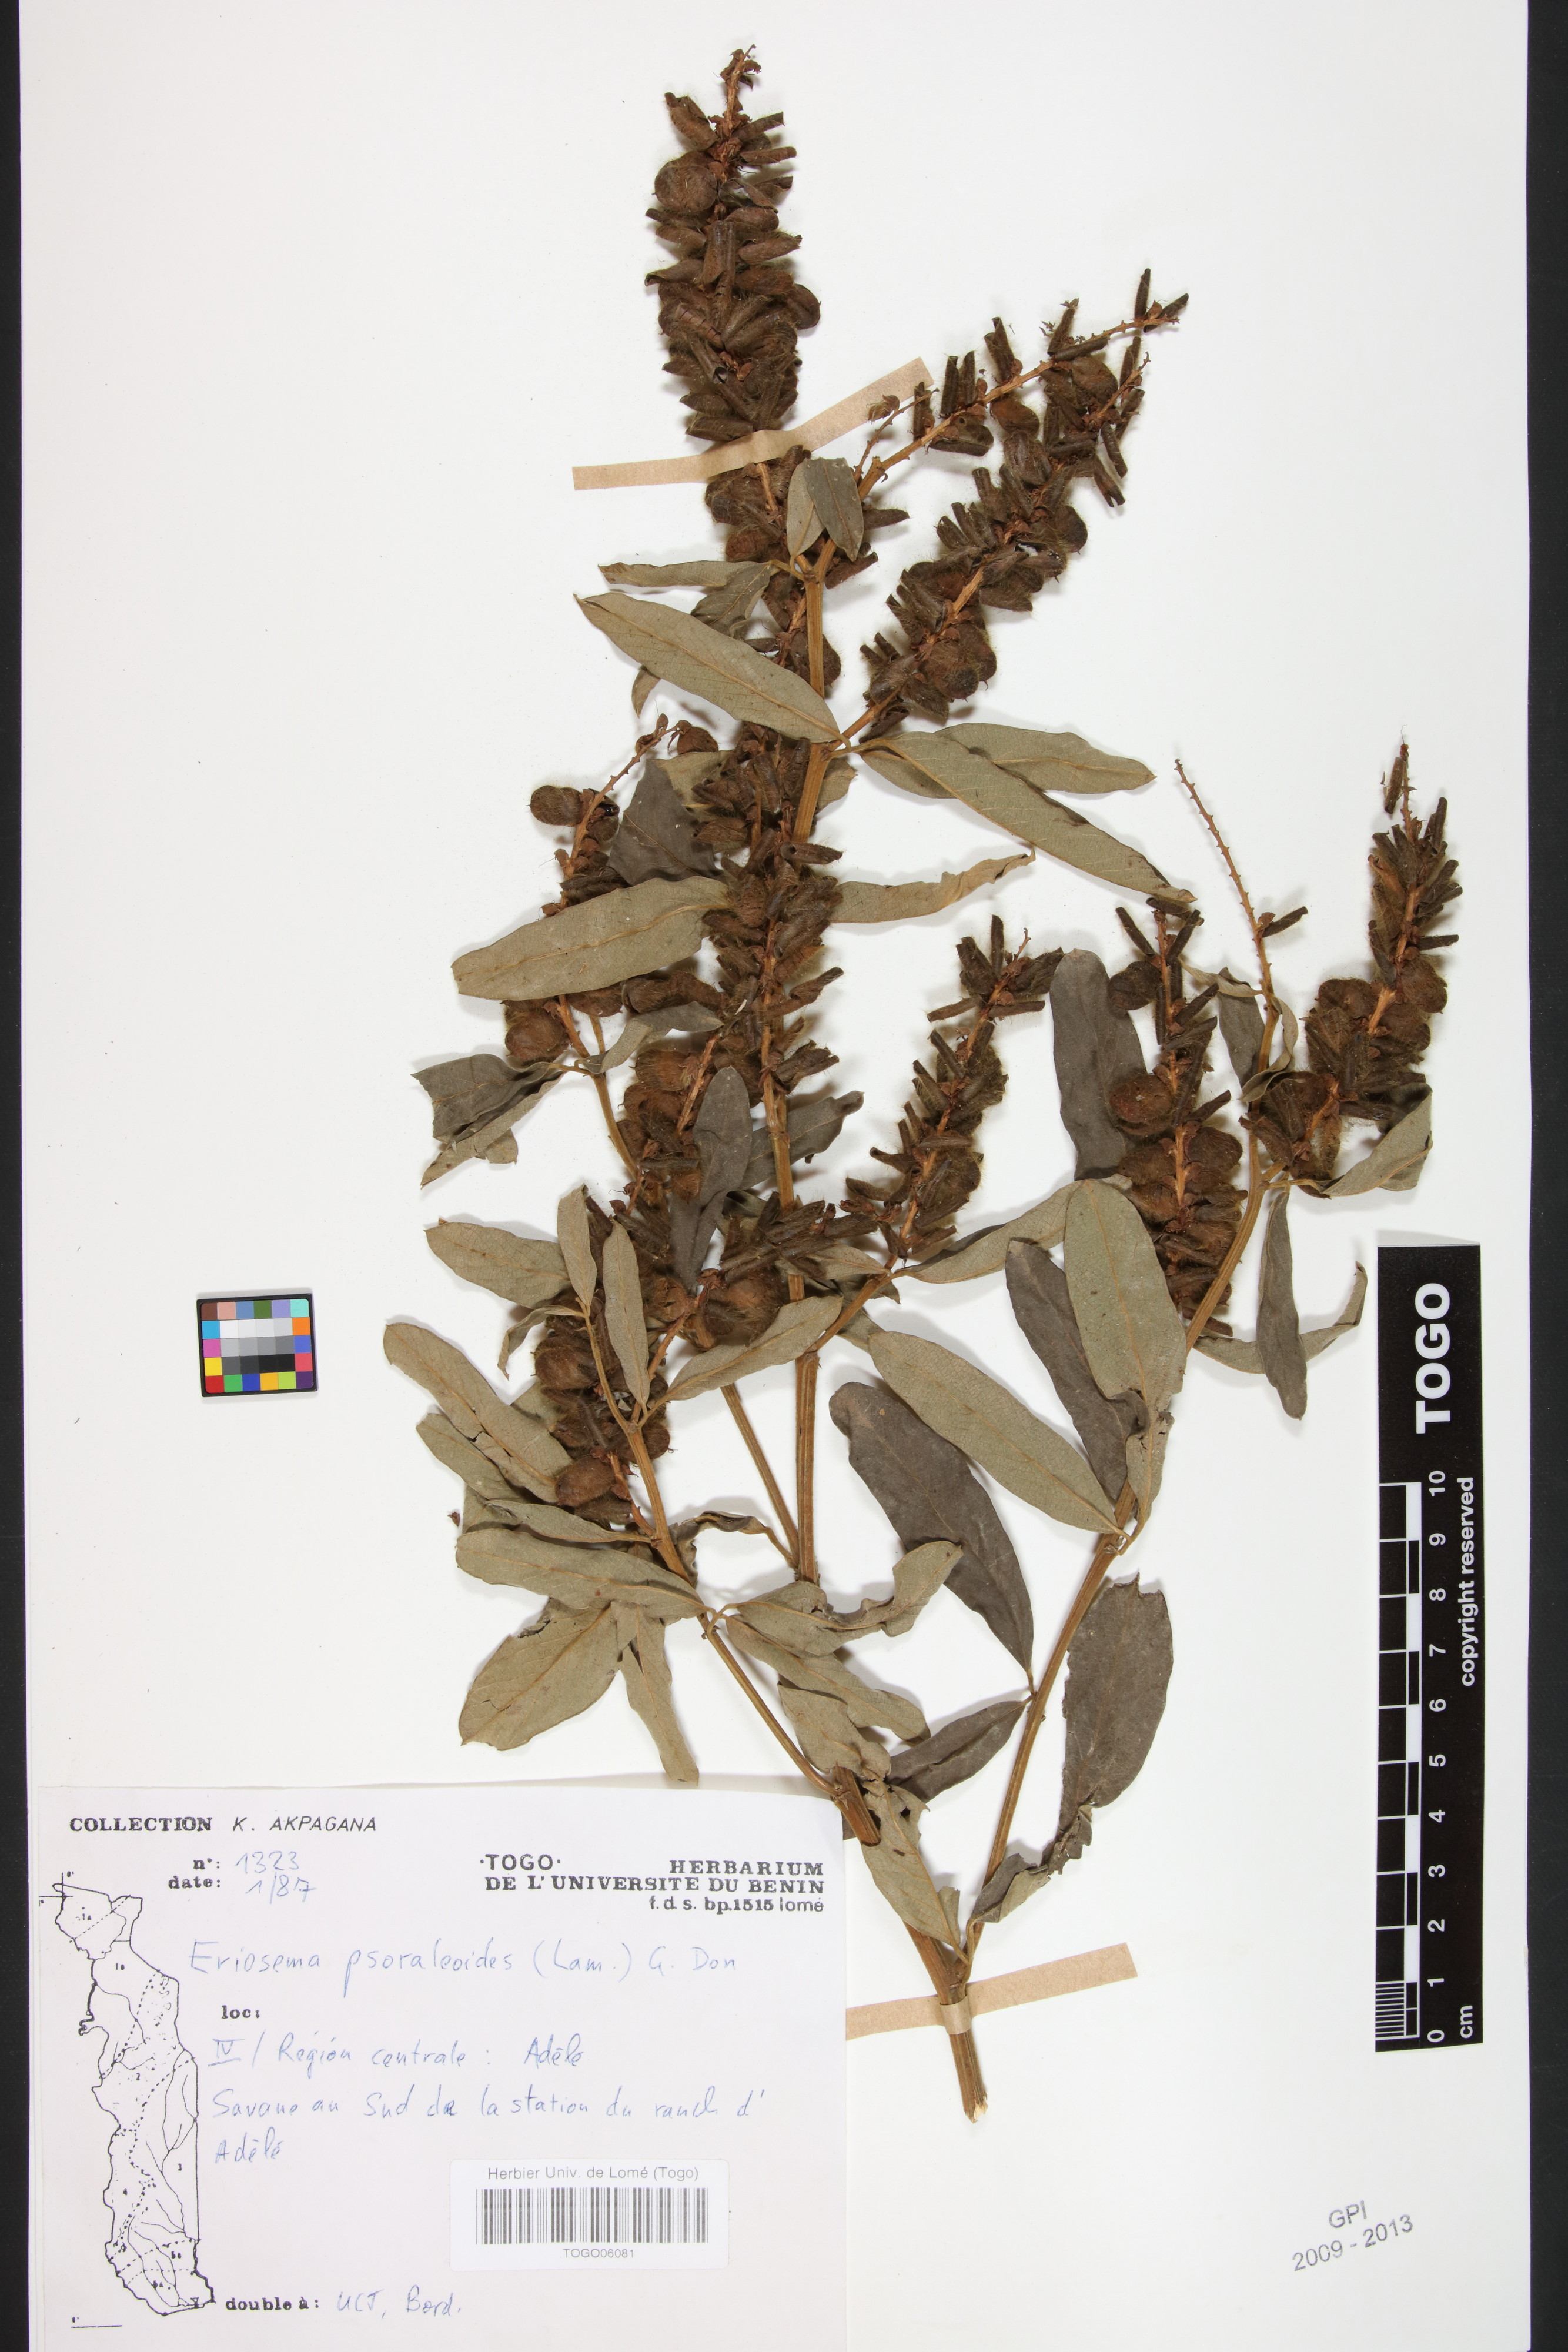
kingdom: Plantae
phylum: Tracheophyta
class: Magnoliopsida
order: Fabales
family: Fabaceae
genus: Eriosema
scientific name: Eriosema psoraleoides
